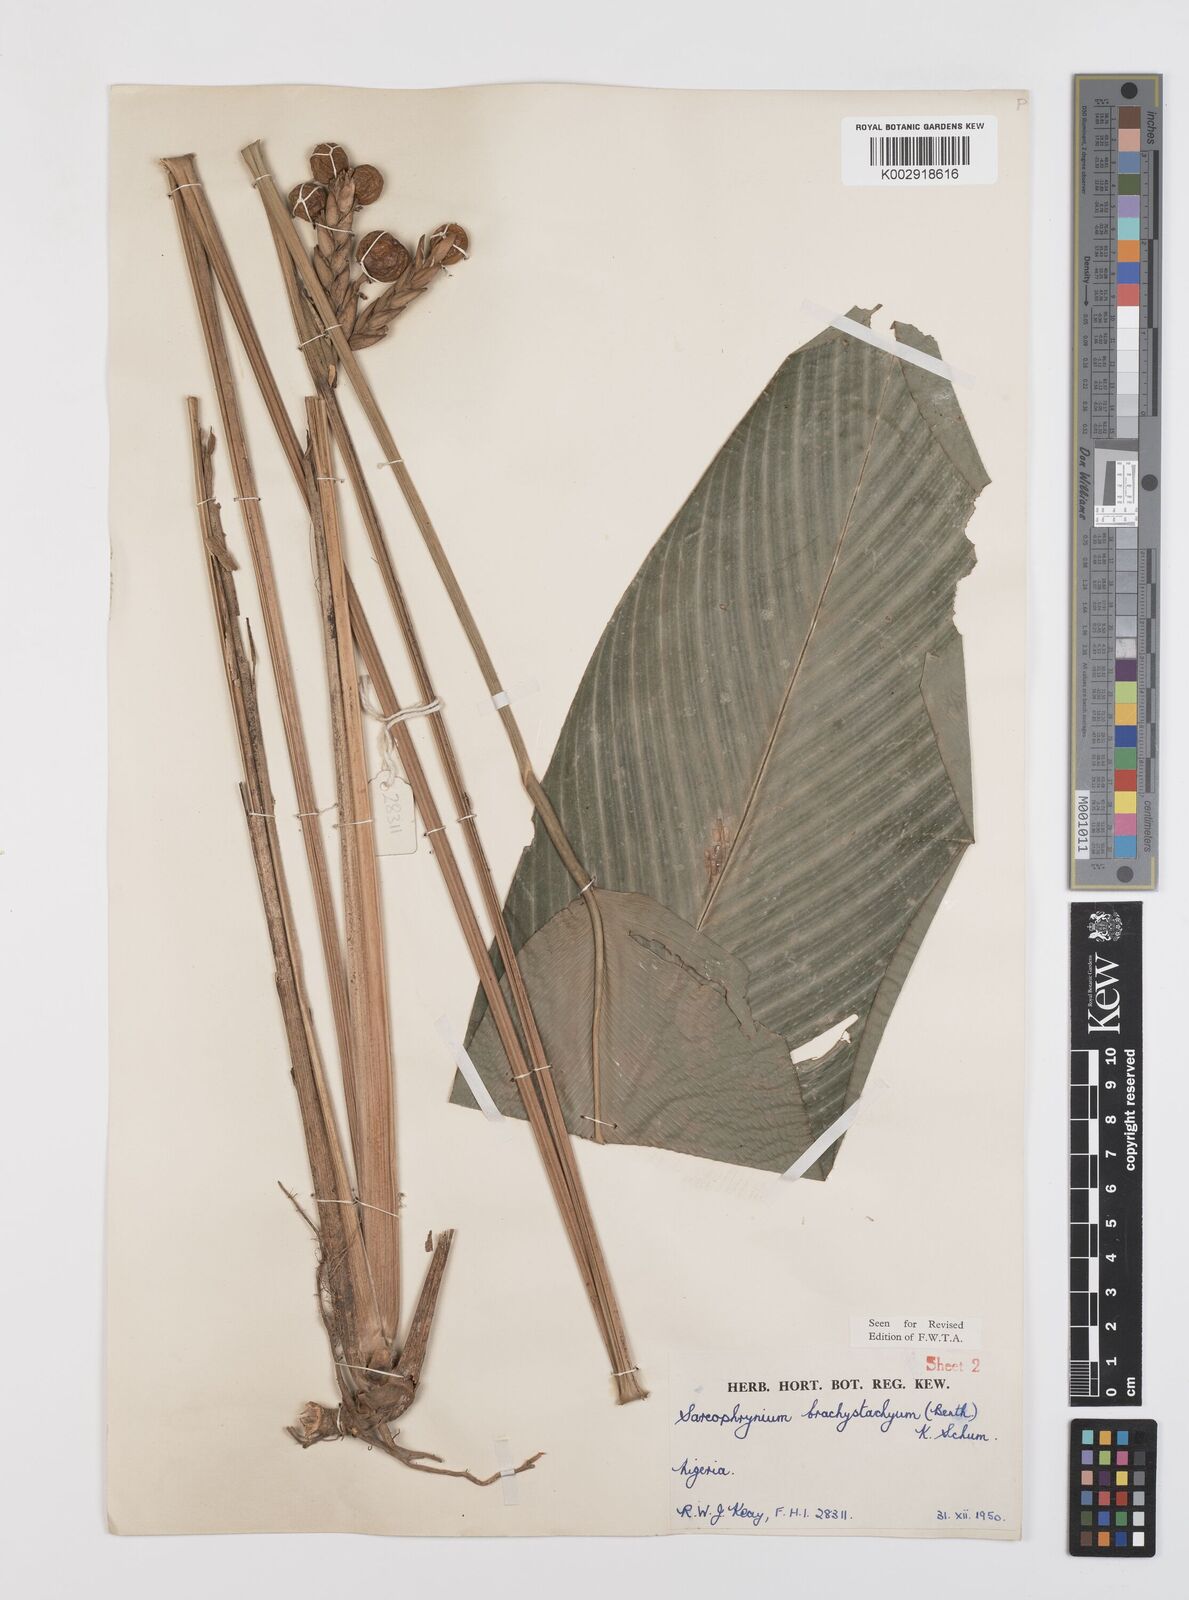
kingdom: Plantae
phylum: Tracheophyta
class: Liliopsida
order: Zingiberales
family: Marantaceae
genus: Sarcophrynium
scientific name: Sarcophrynium brachystachyum
